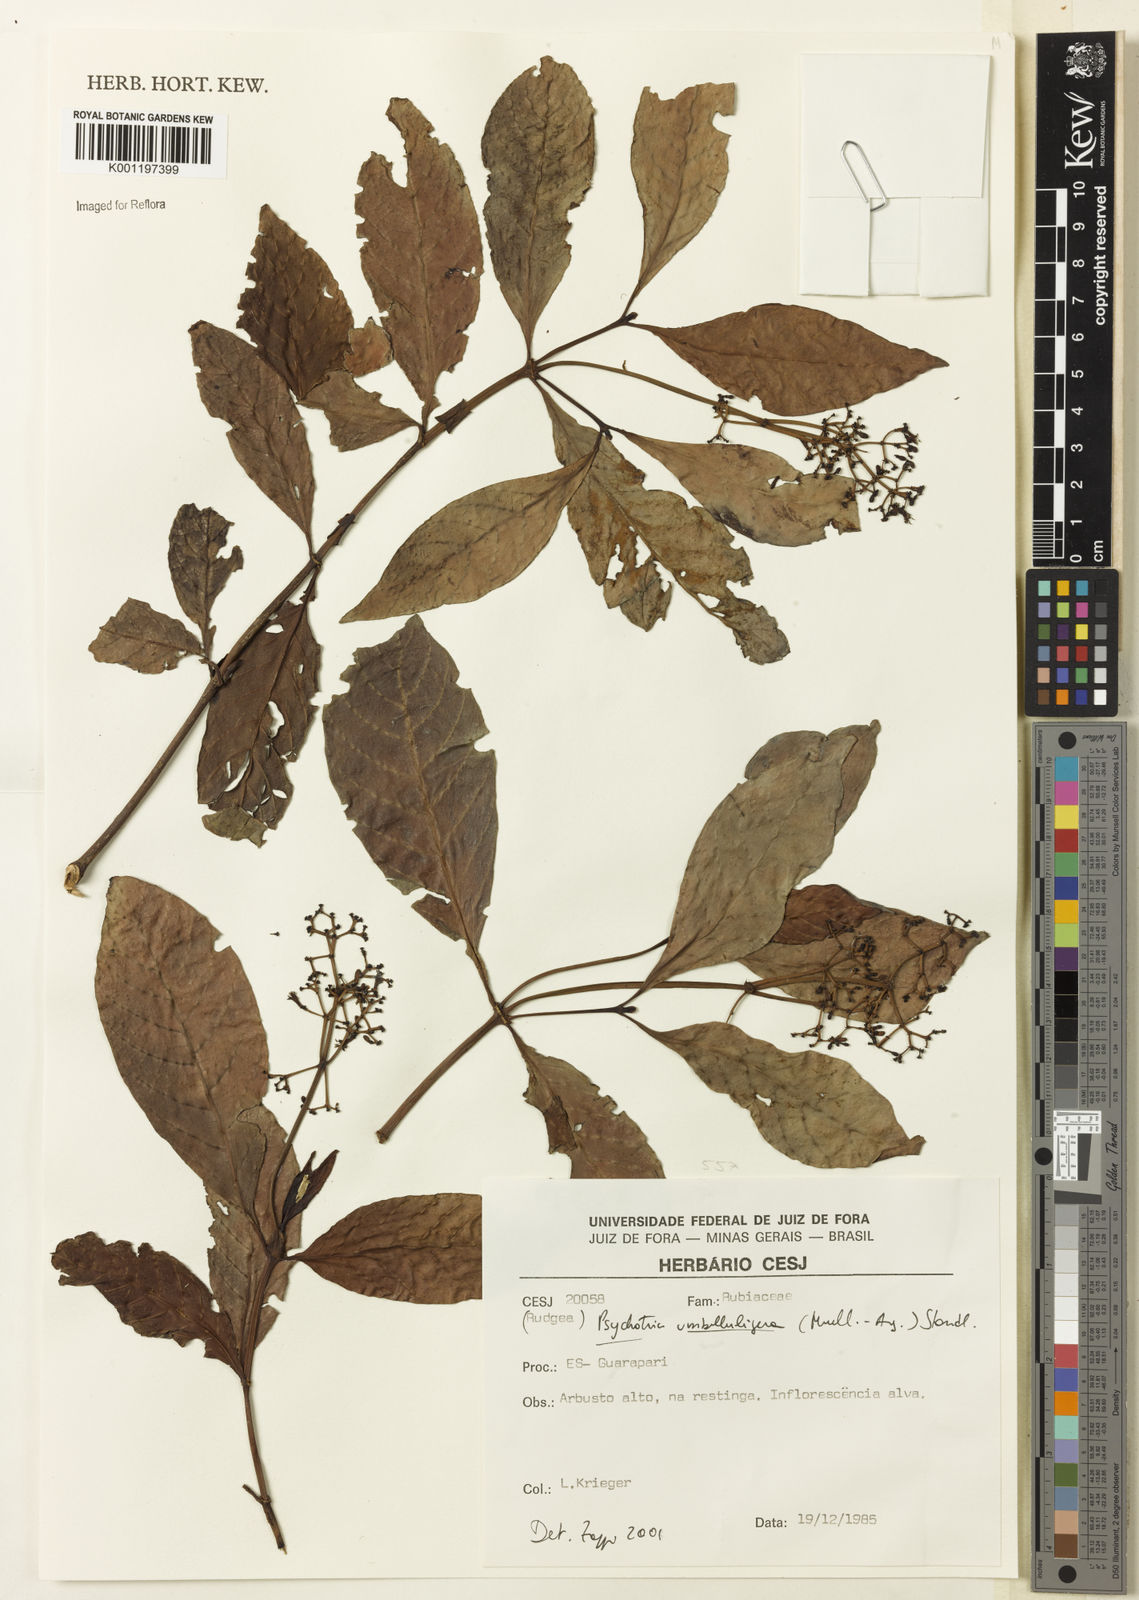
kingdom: Plantae
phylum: Tracheophyta
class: Magnoliopsida
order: Gentianales
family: Rubiaceae
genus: Psychotria
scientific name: Psychotria
